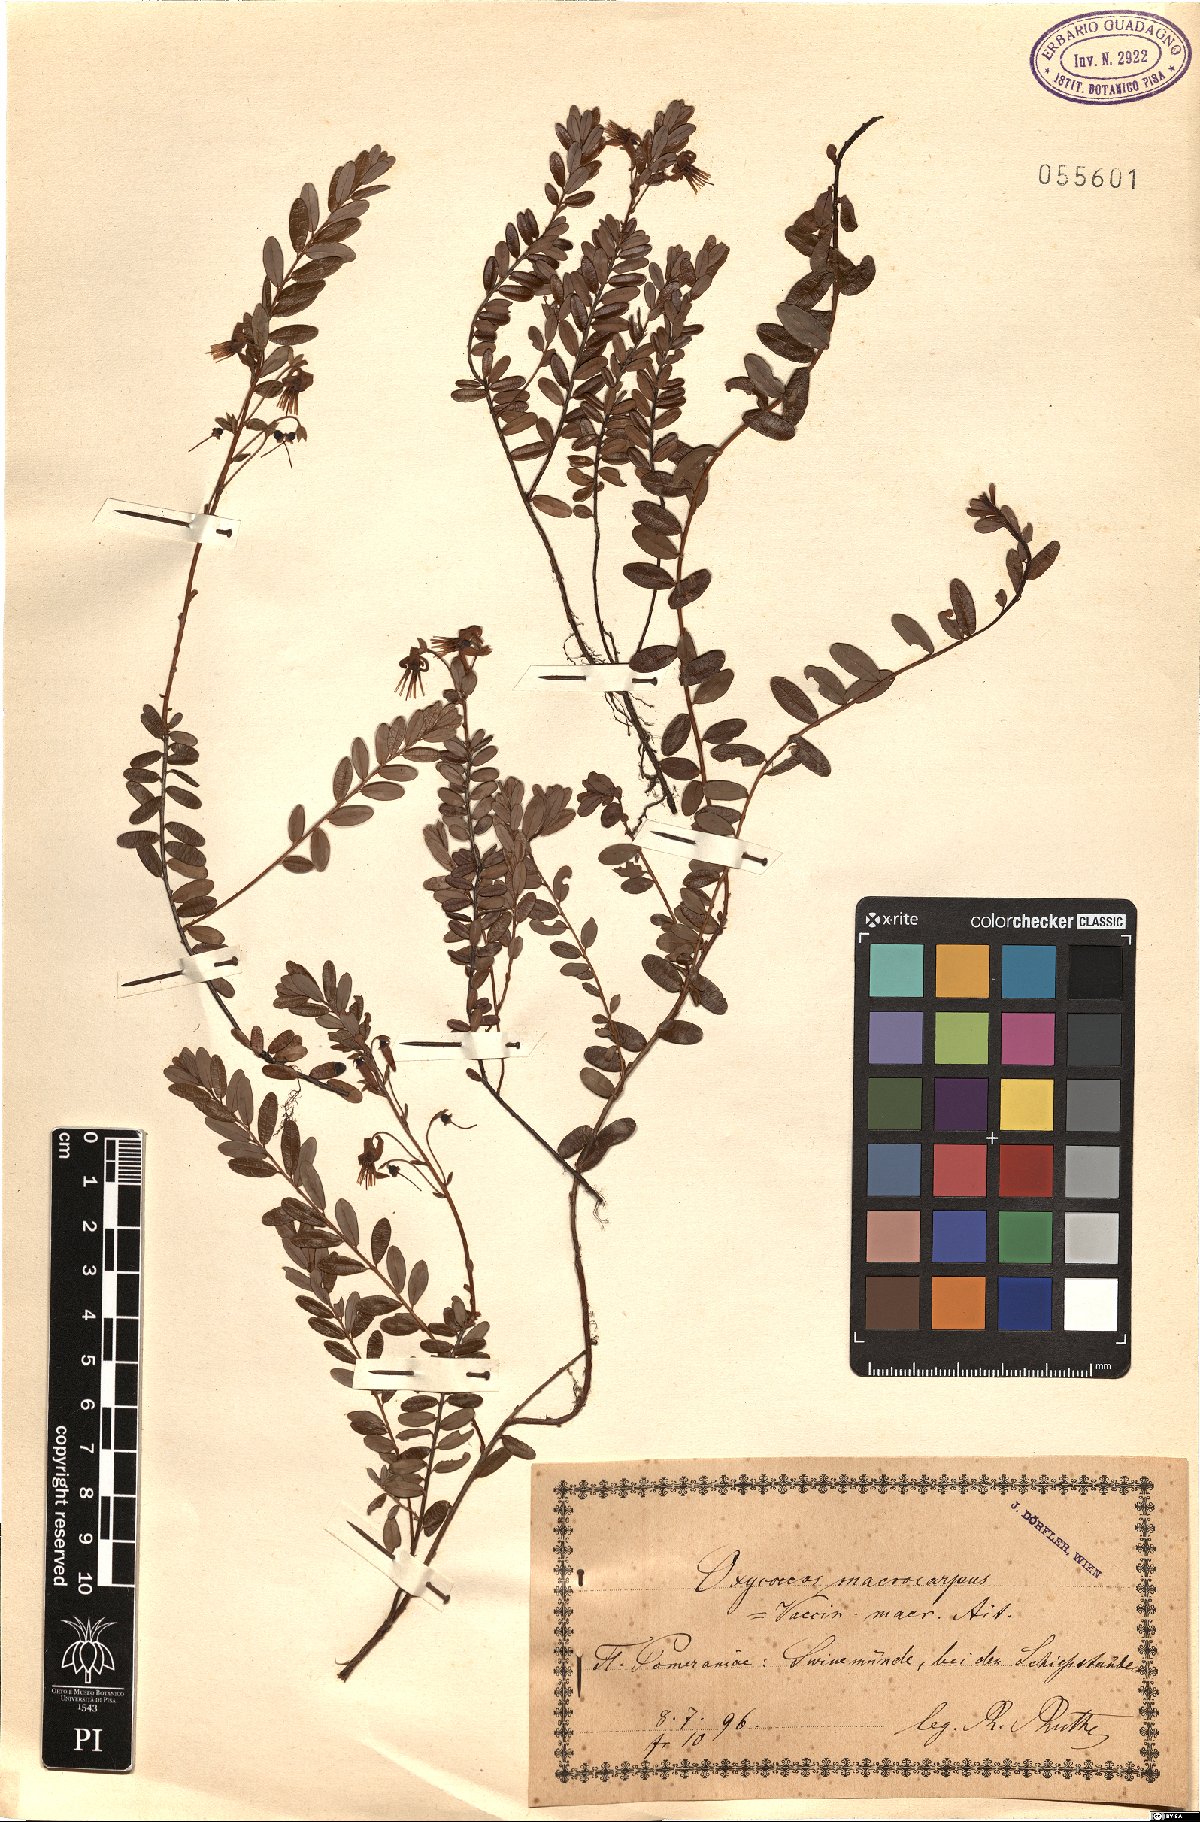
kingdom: Plantae
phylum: Tracheophyta
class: Magnoliopsida
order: Ericales
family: Ericaceae
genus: Vaccinium
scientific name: Vaccinium macrocarpon
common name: American cranberry
